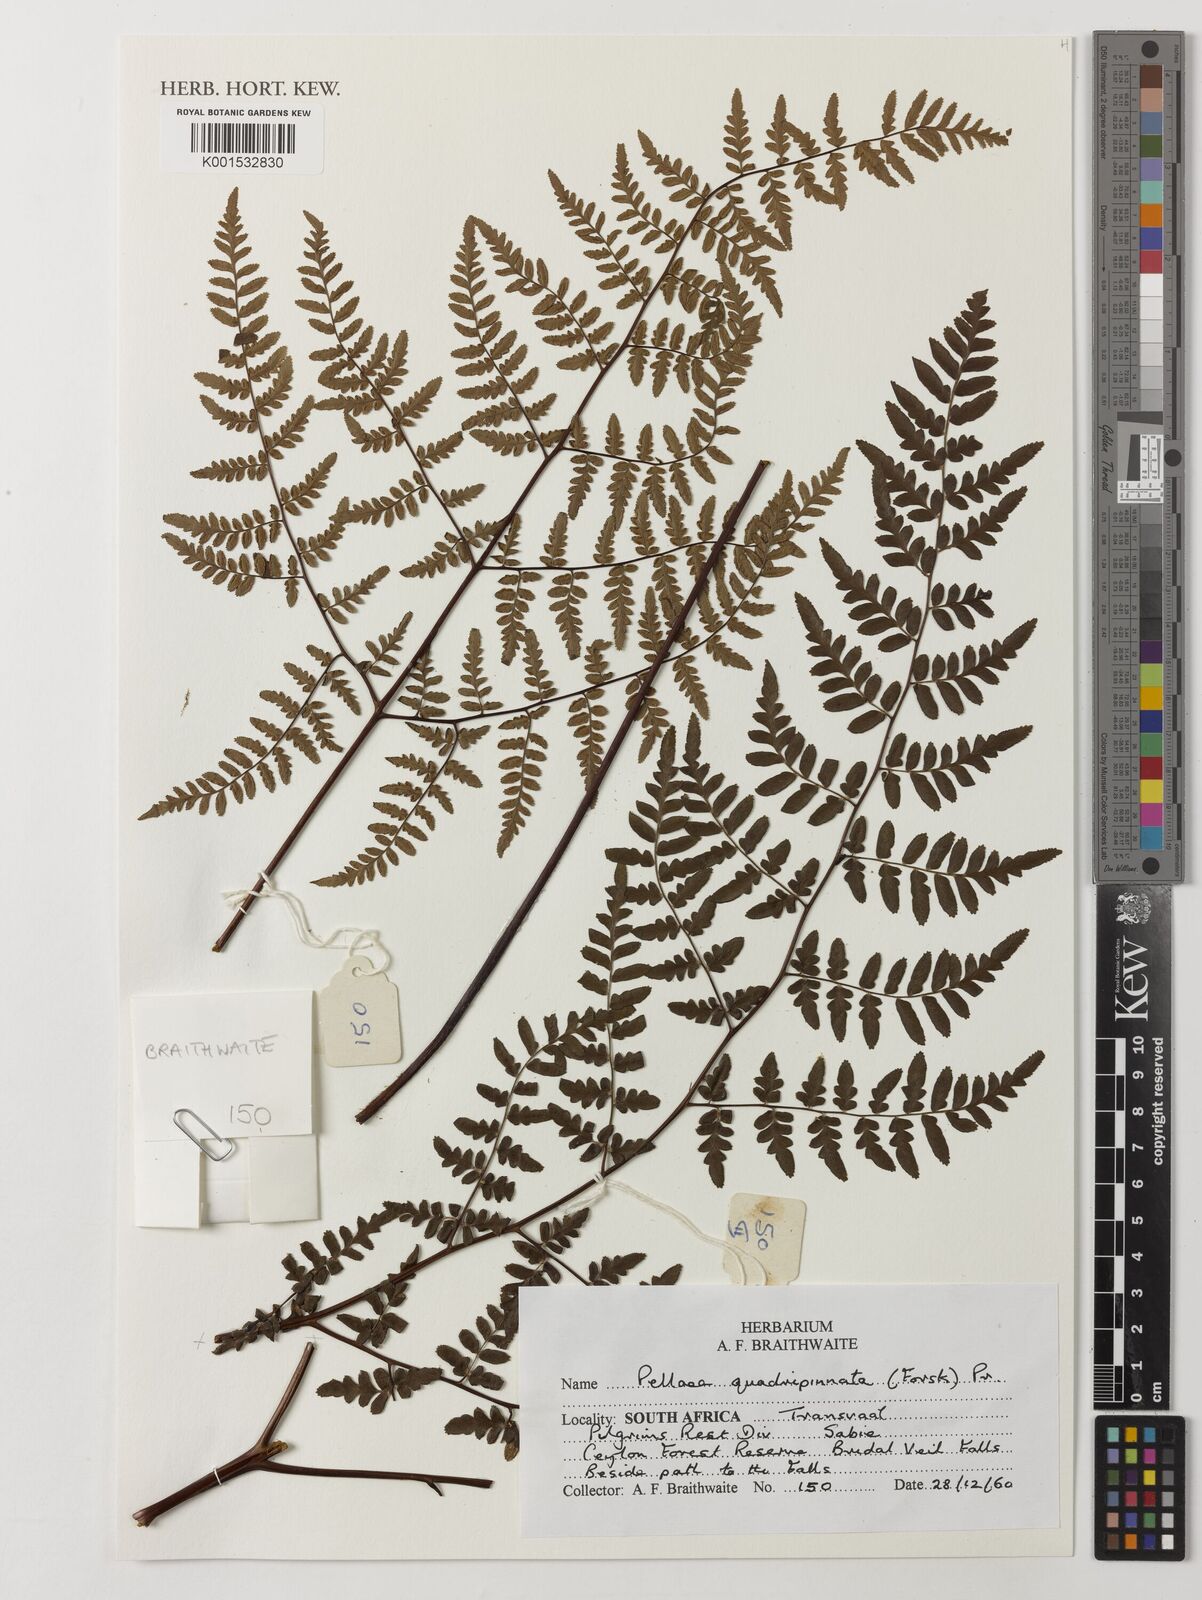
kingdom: Plantae
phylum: Tracheophyta
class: Polypodiopsida
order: Polypodiales
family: Pteridaceae
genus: Cheilanthes
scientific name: Cheilanthes quadripinnata
